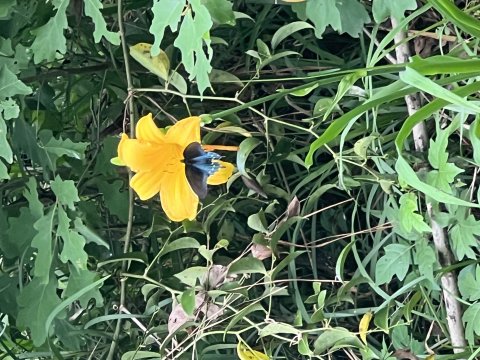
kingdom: Animalia
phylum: Arthropoda
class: Insecta
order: Lepidoptera
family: Papilionidae
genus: Battus
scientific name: Battus philenor
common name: Pipevine Swallowtail
